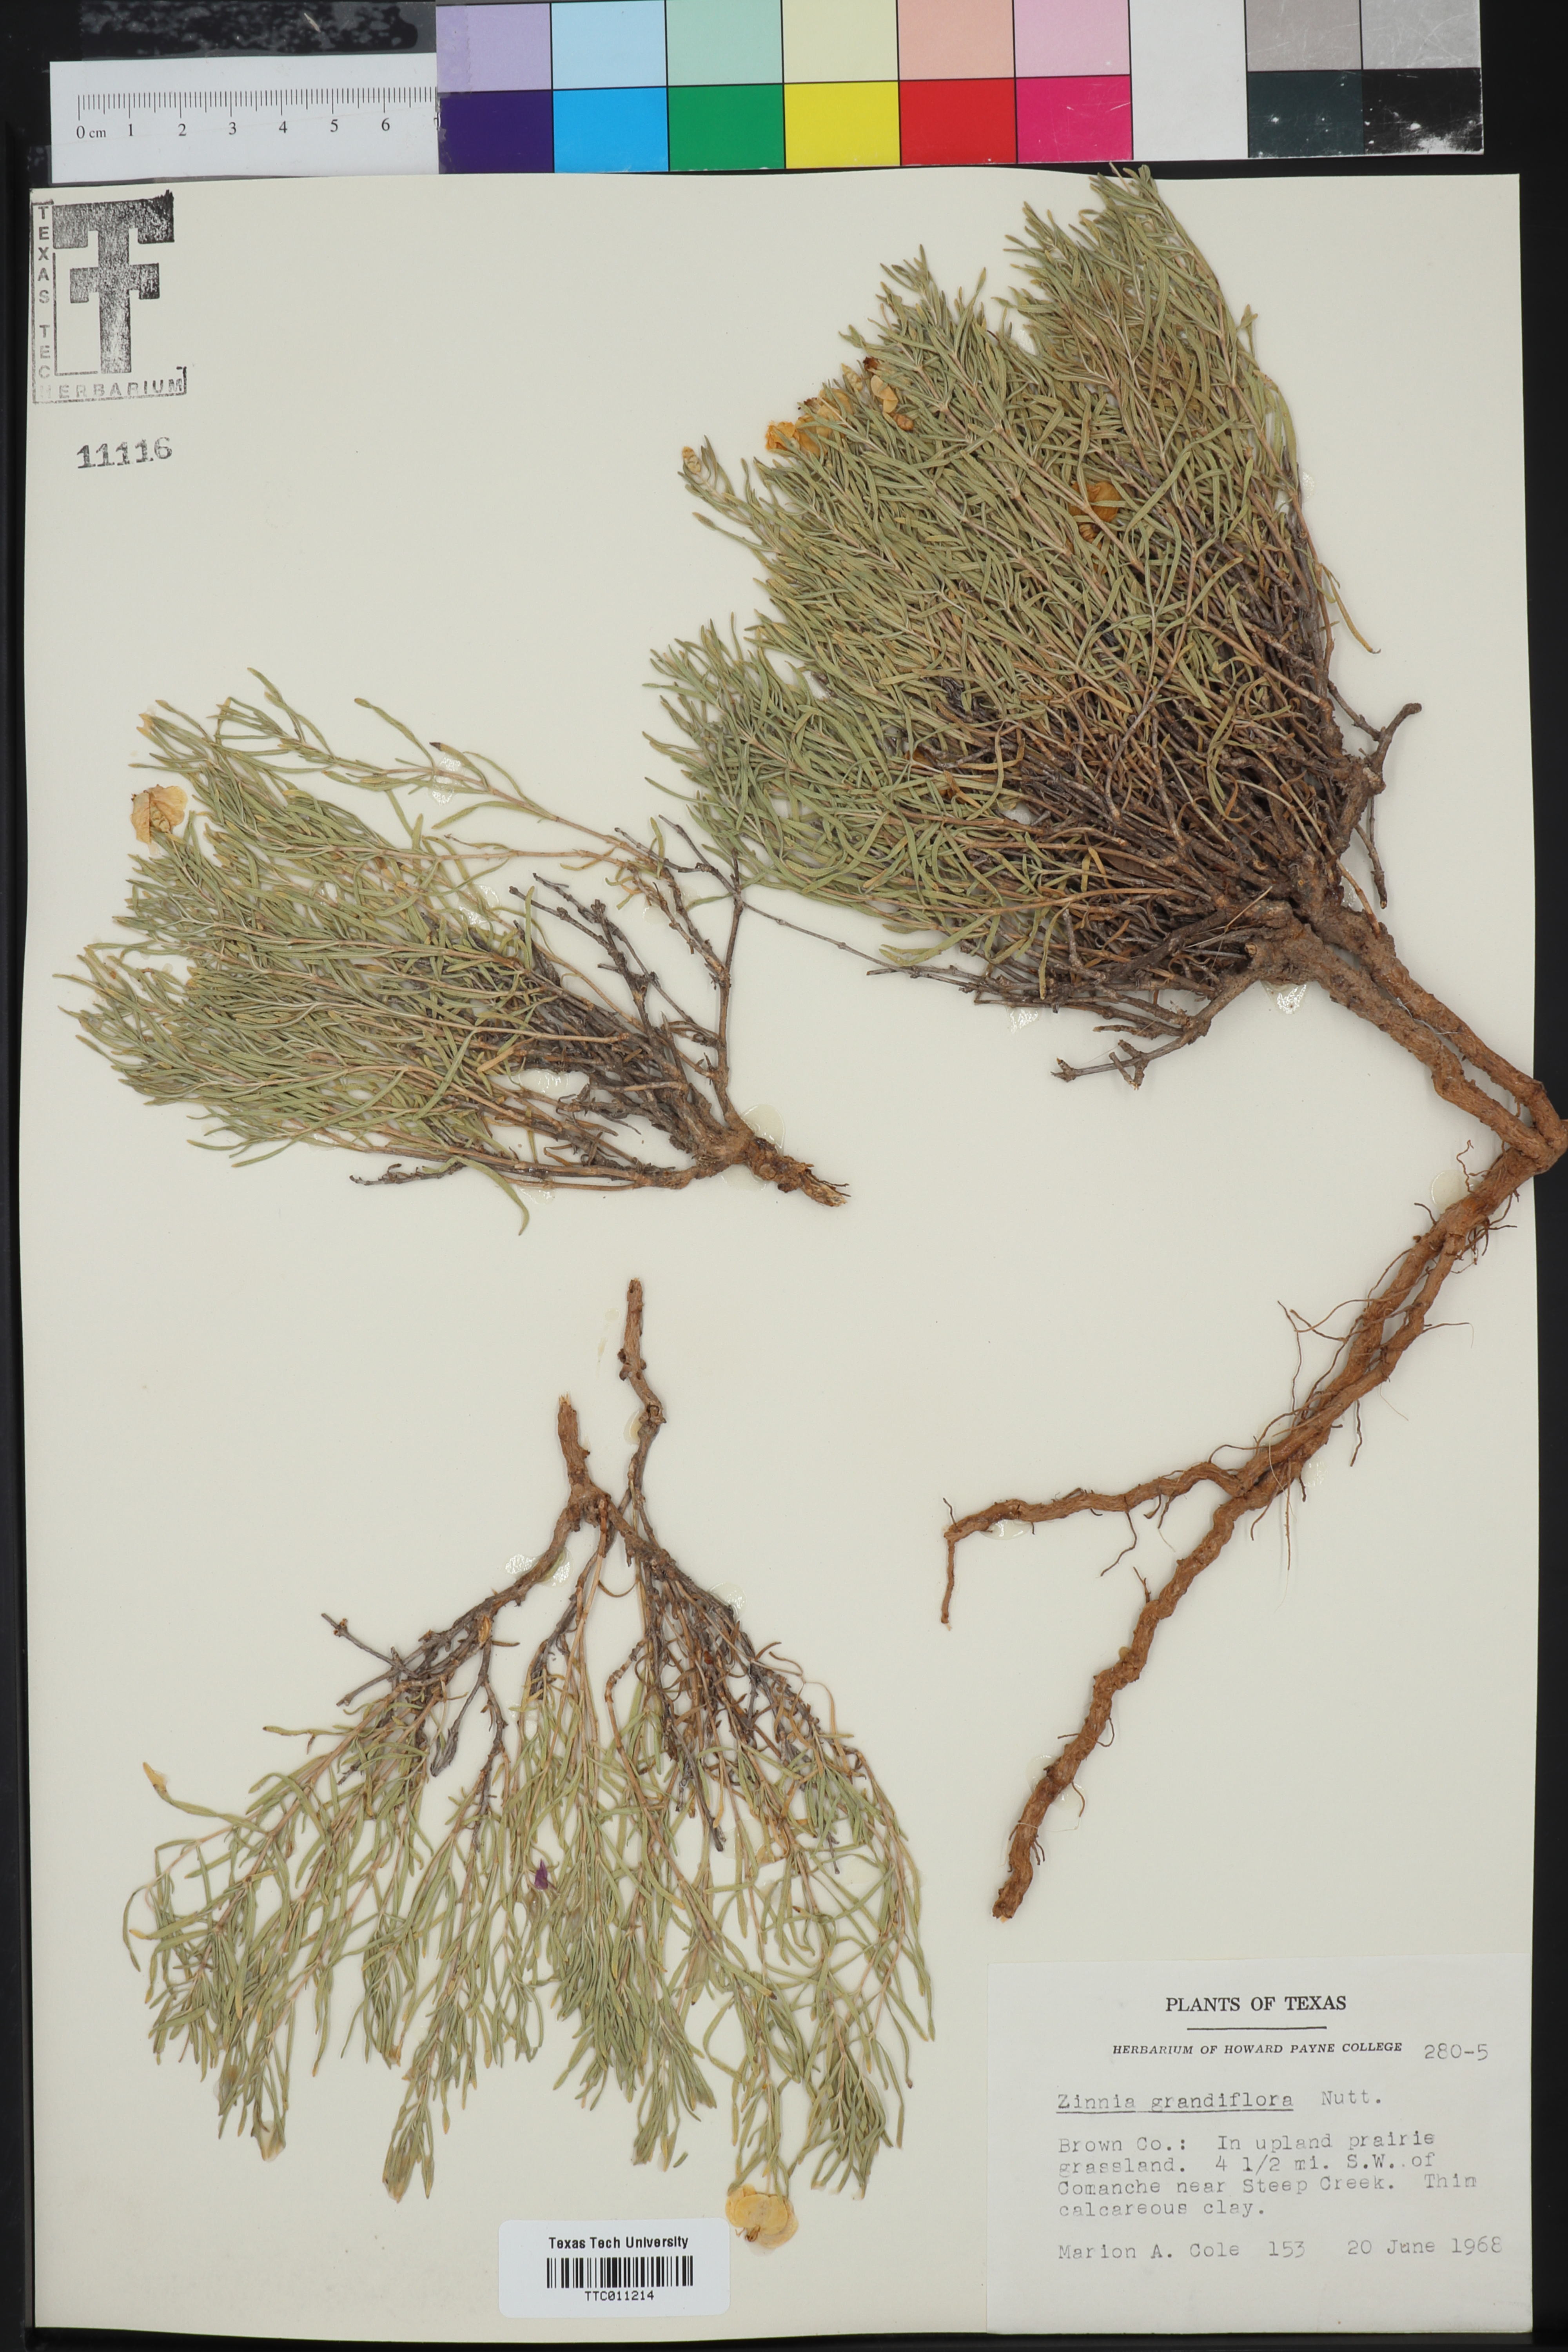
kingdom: Plantae
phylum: Tracheophyta
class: Magnoliopsida
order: Asterales
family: Asteraceae
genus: Zinnia
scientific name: Zinnia grandiflora
